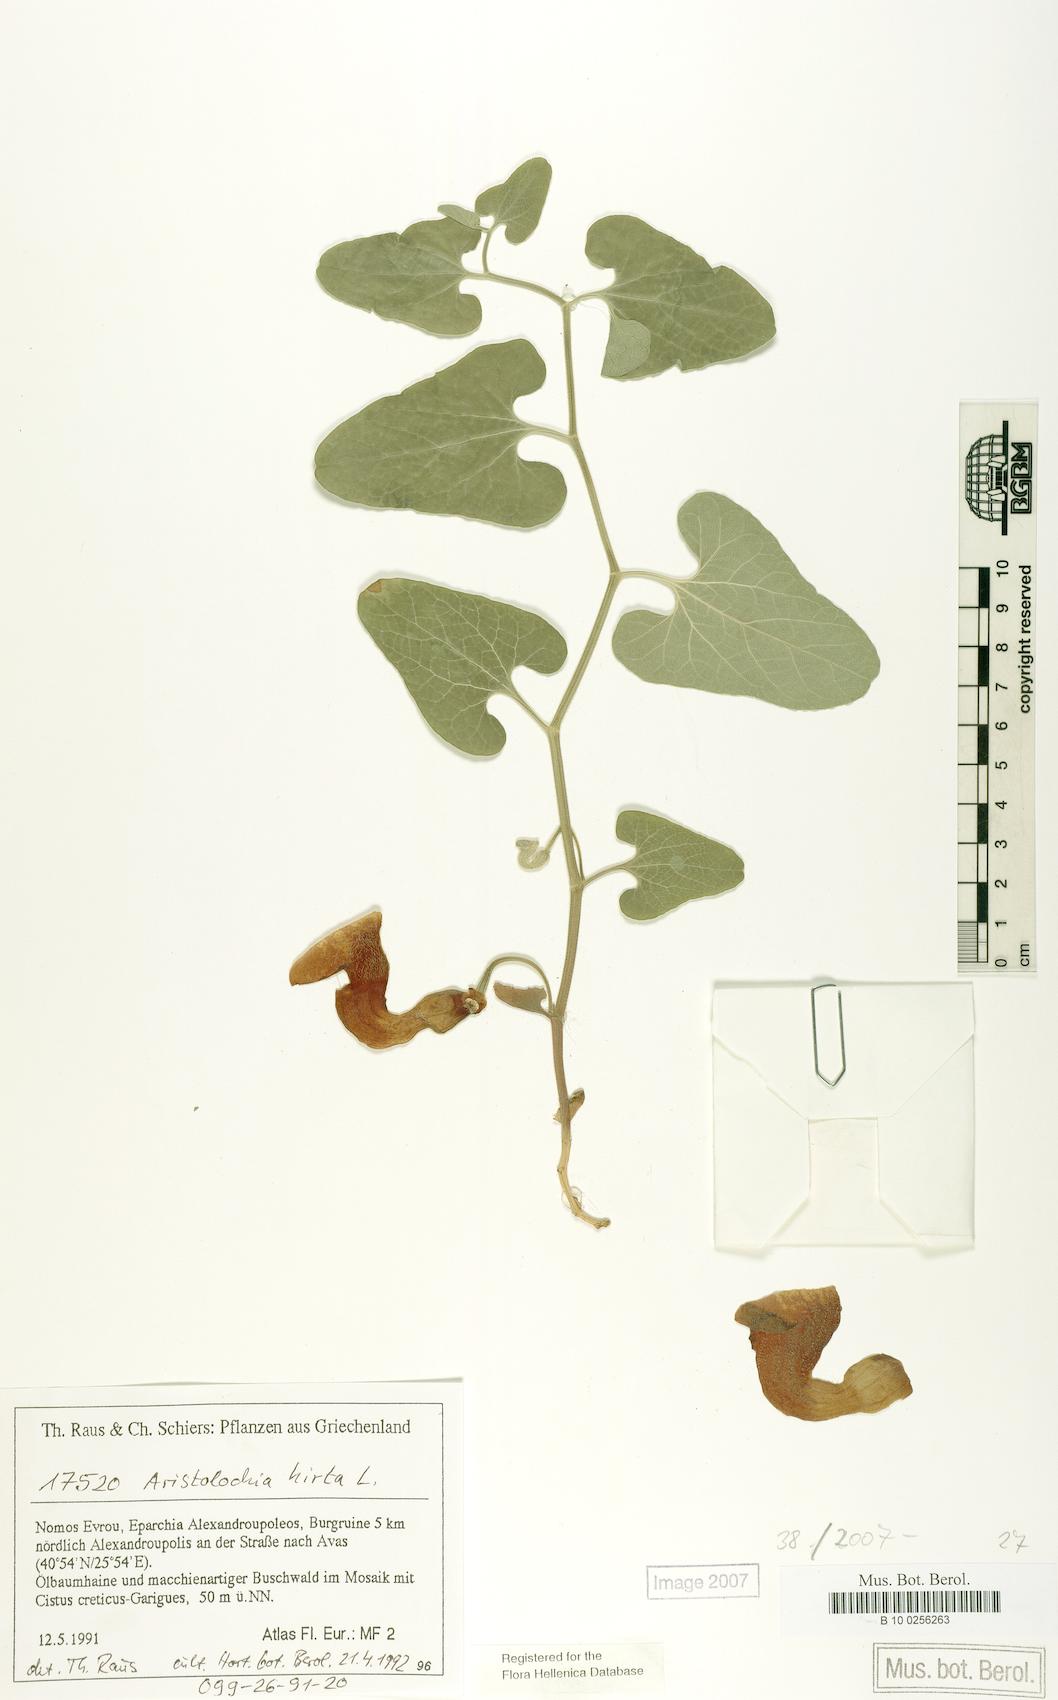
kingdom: Plantae
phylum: Tracheophyta
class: Magnoliopsida
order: Piperales
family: Aristolochiaceae
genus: Aristolochia
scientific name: Aristolochia hirta
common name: Breckland birthwort
